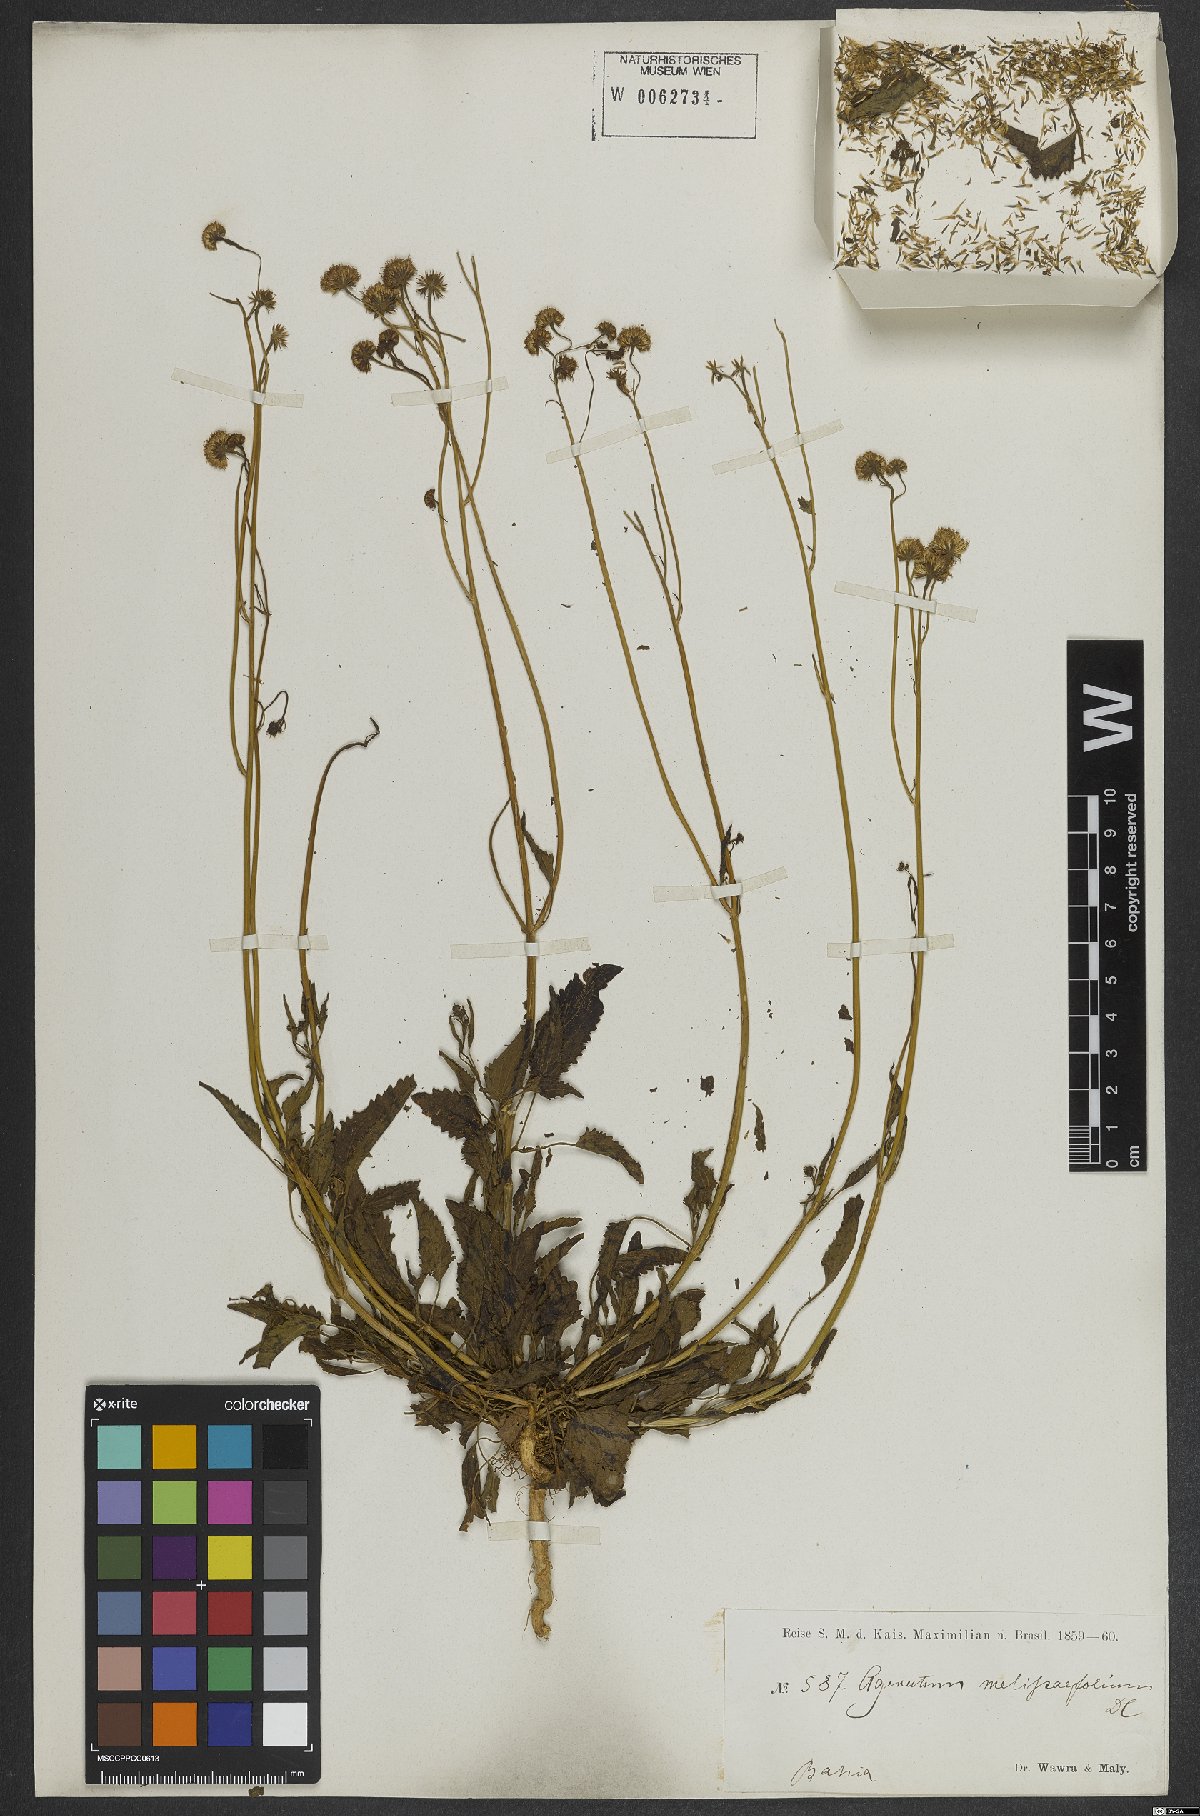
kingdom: Plantae
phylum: Tracheophyta
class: Magnoliopsida
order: Asterales
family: Asteraceae
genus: Platypodanthera
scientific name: Platypodanthera melissifolia
